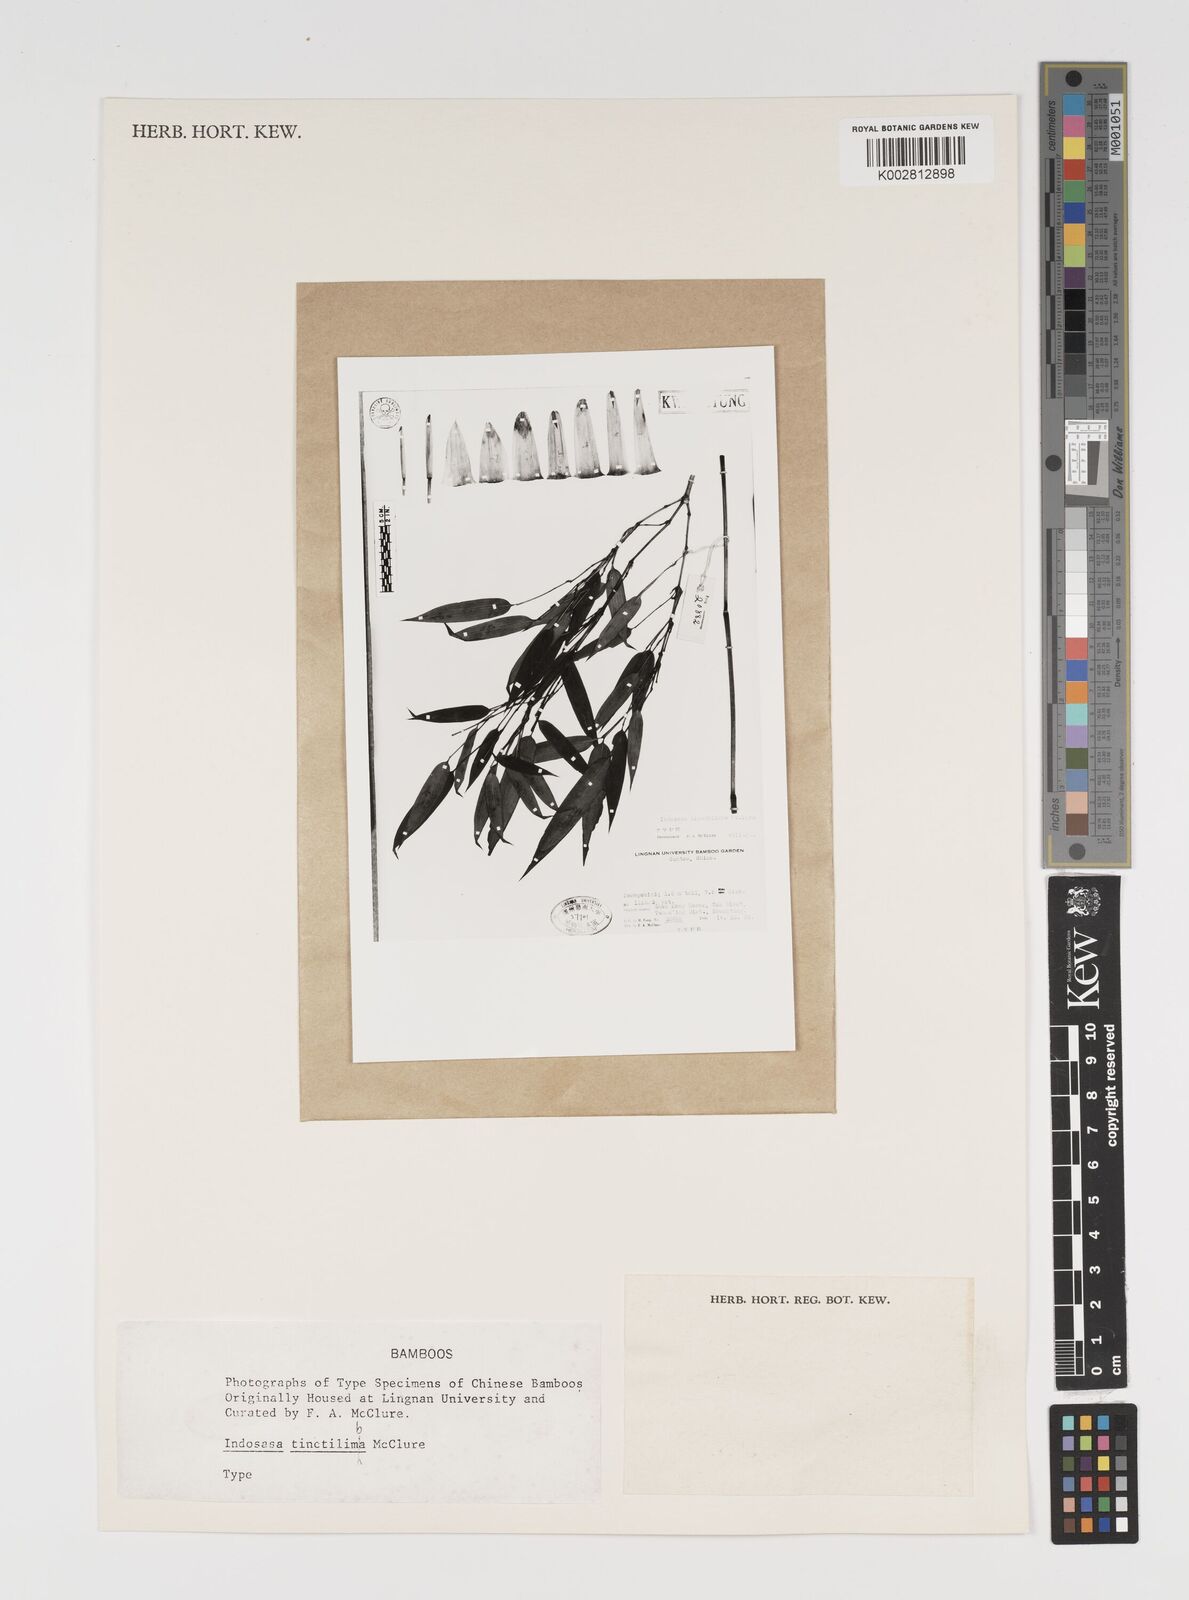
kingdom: Plantae
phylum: Tracheophyta
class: Liliopsida
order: Poales
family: Poaceae
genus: Indosasa
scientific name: Indosasa shibataeaoides
